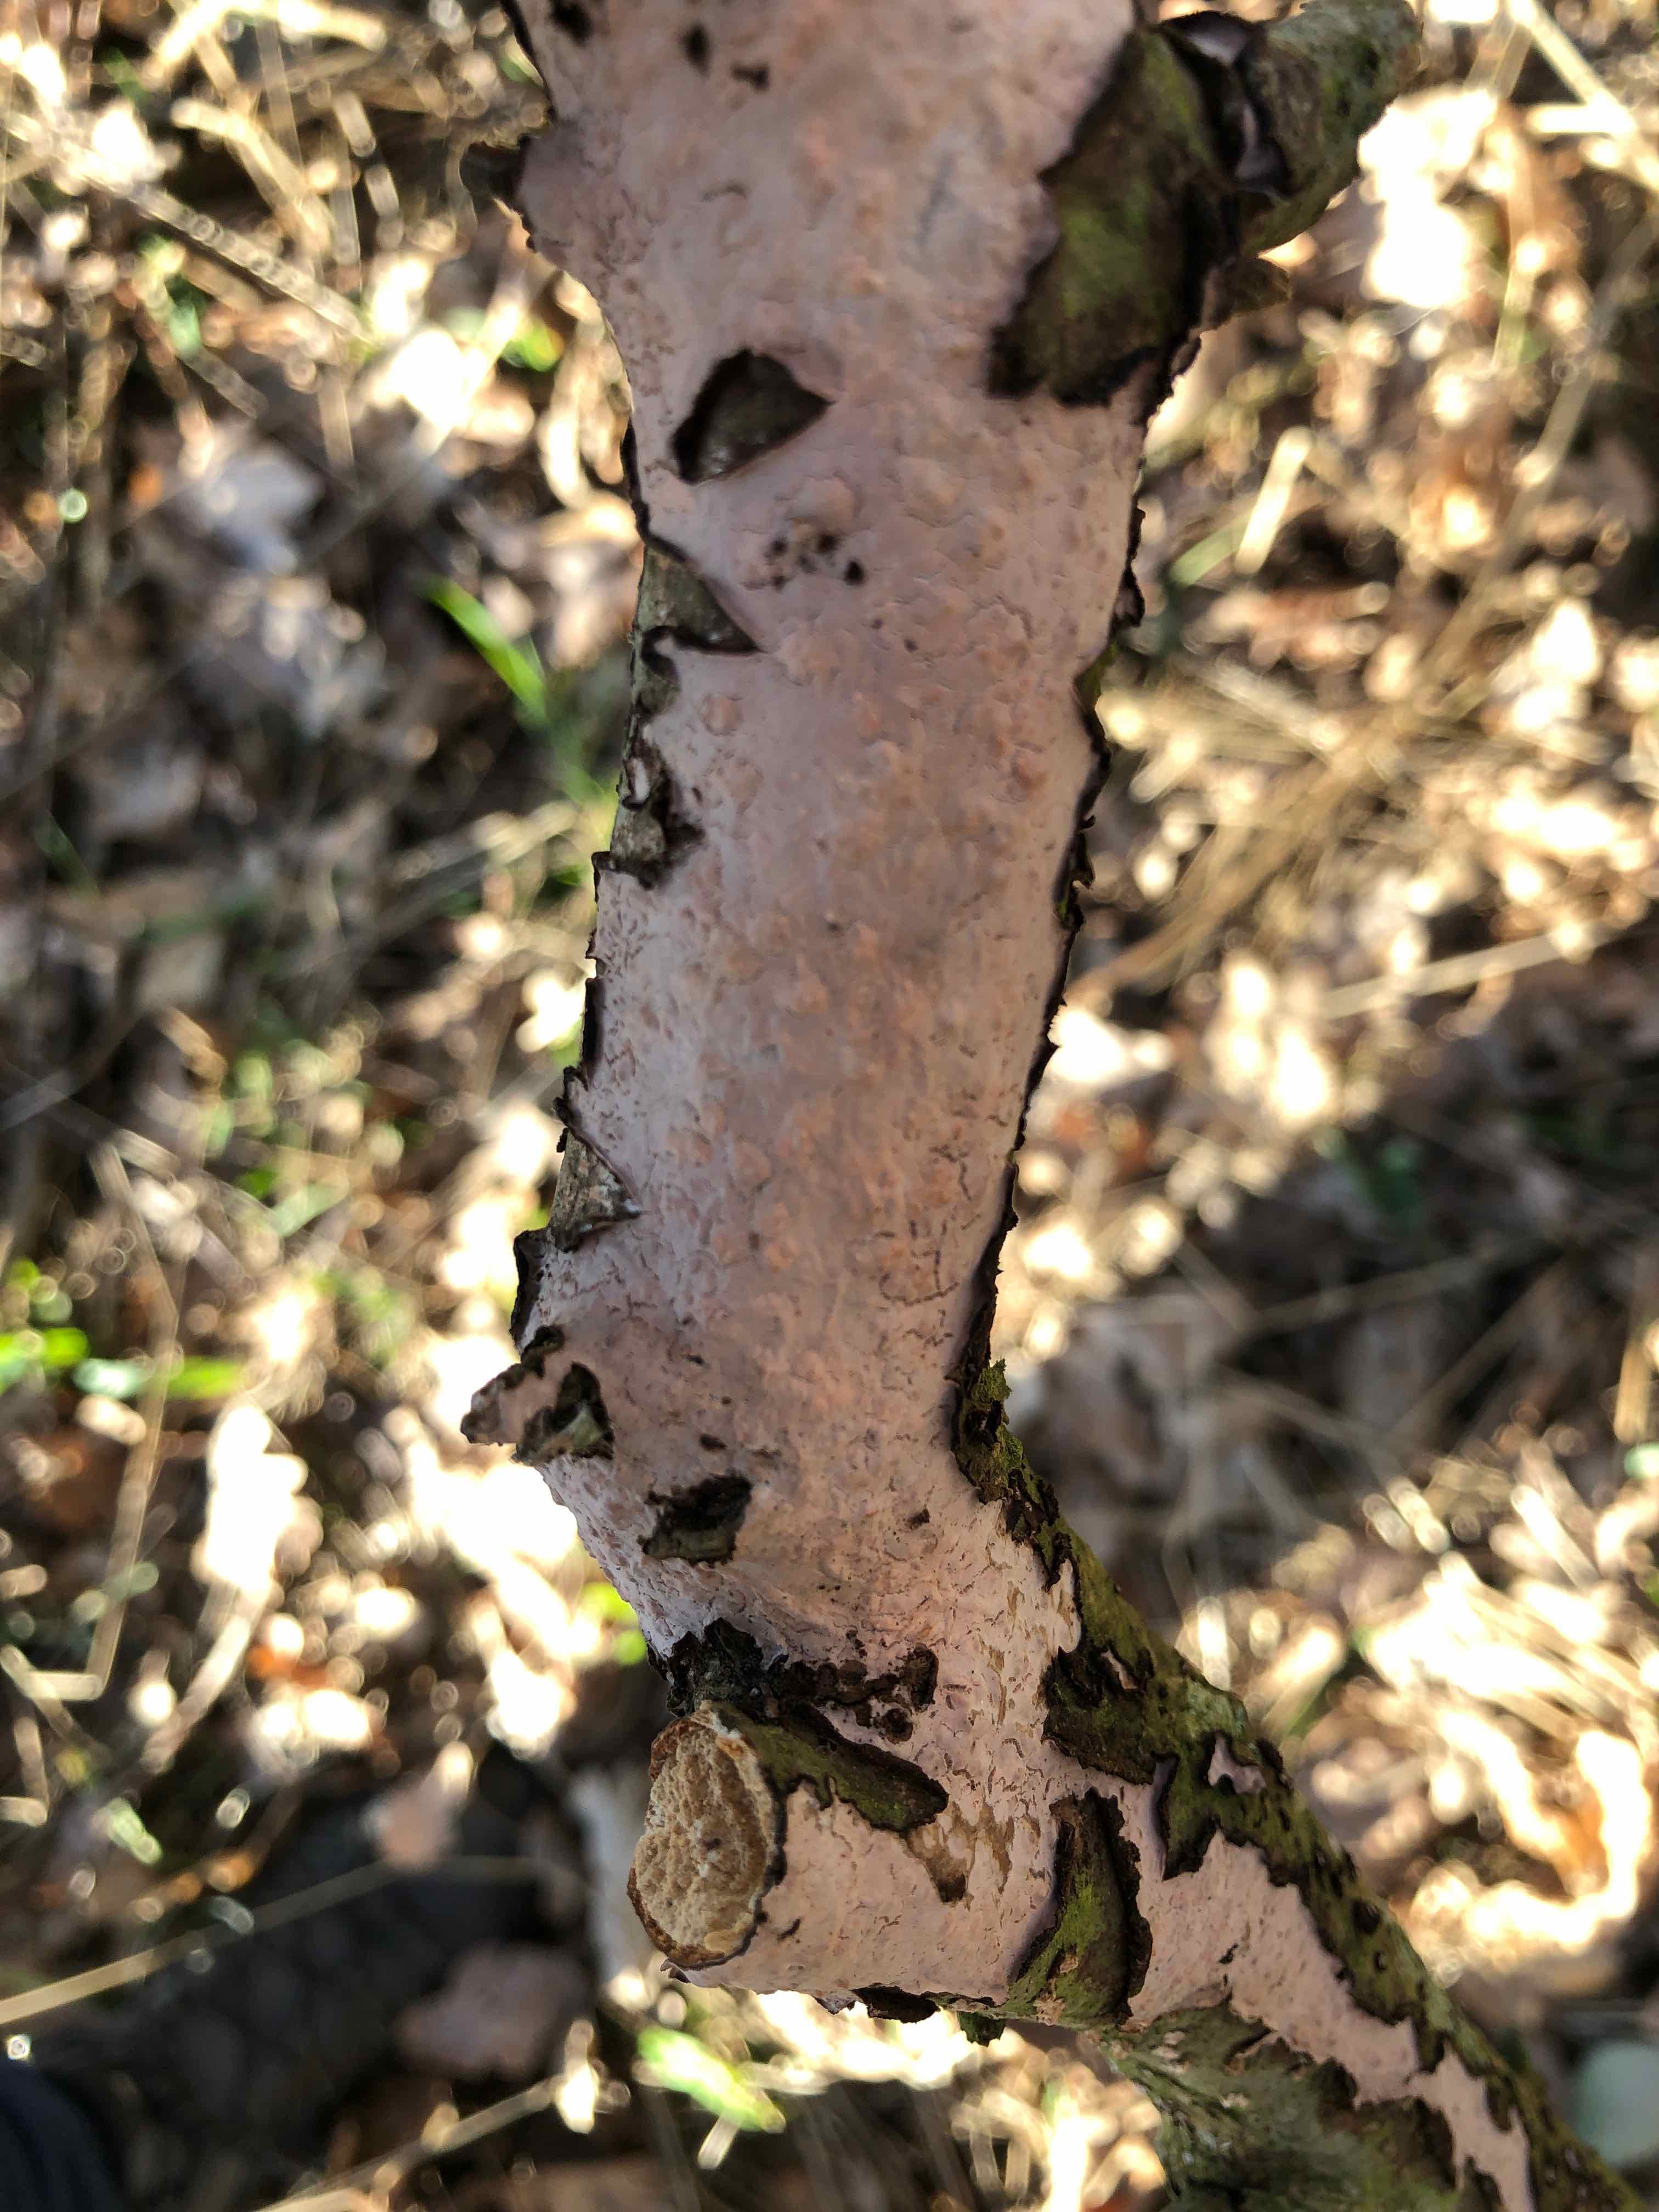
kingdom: Fungi
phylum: Basidiomycota
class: Agaricomycetes
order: Russulales
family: Peniophoraceae
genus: Peniophora
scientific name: Peniophora quercina
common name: ege-voksskind
